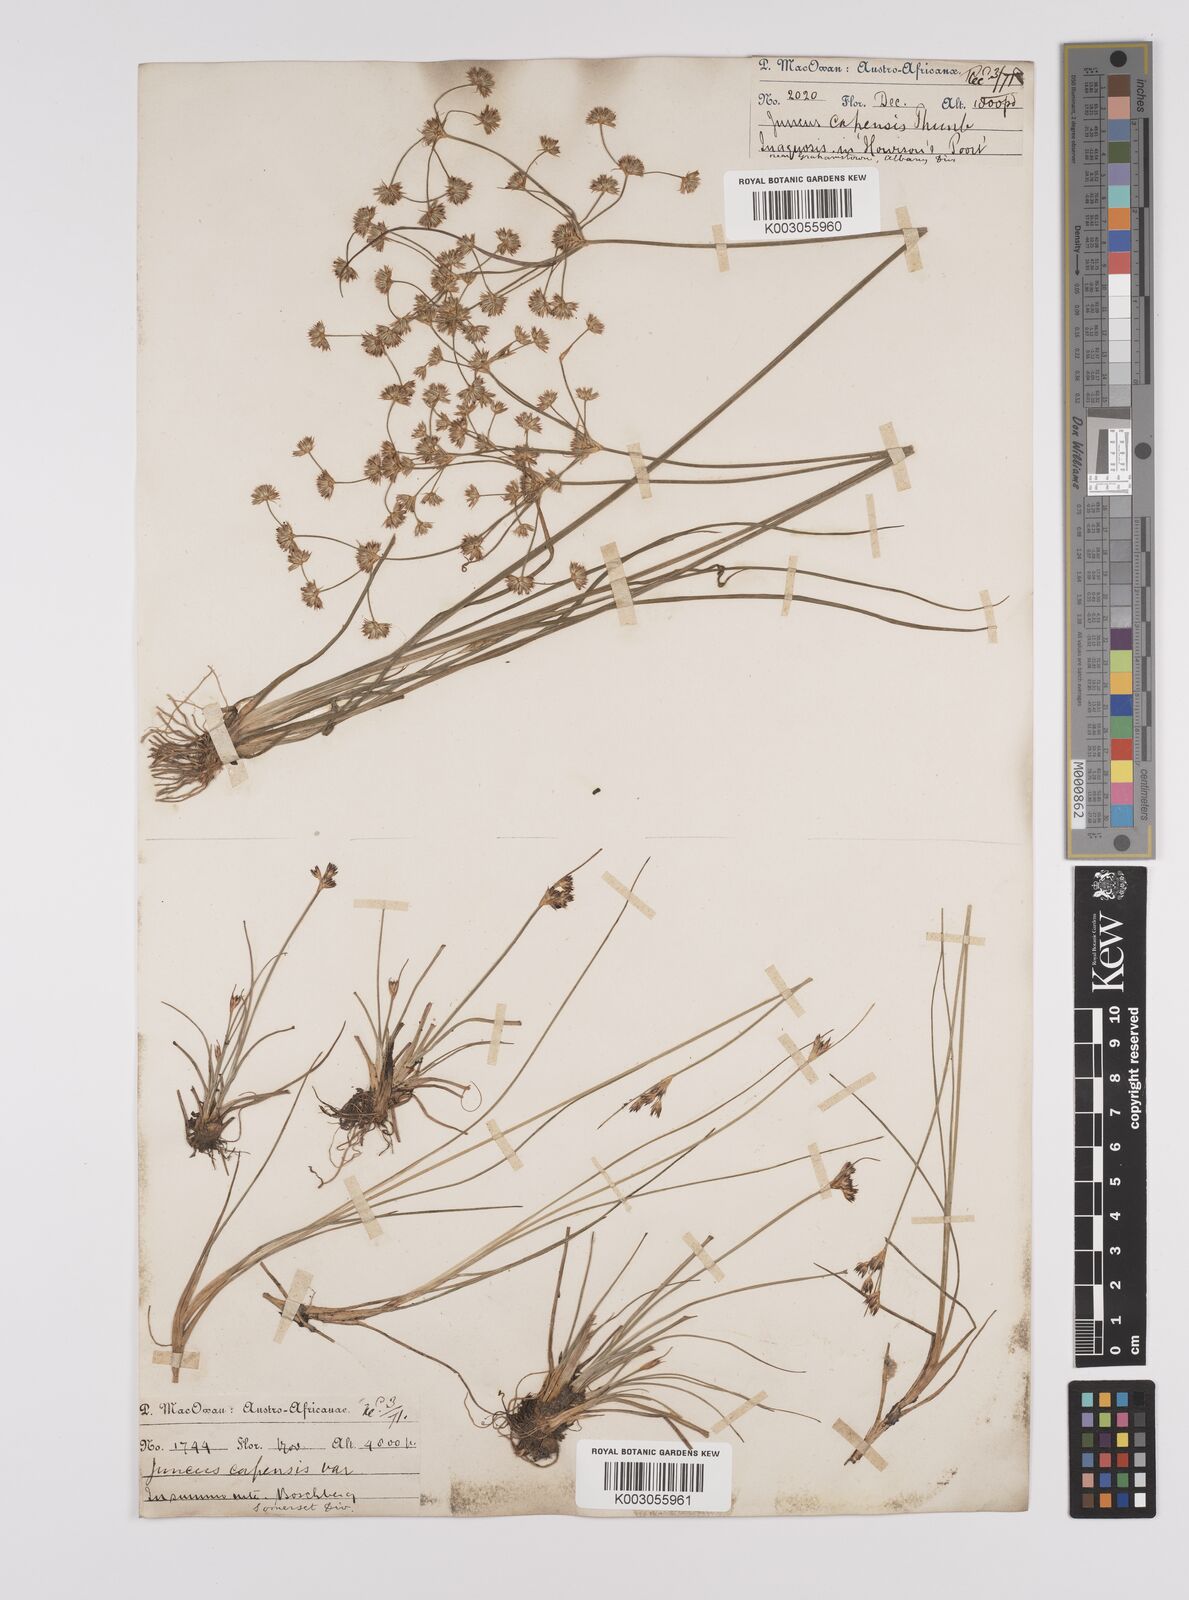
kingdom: Plantae
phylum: Tracheophyta
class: Liliopsida
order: Poales
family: Juncaceae
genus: Juncus
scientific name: Juncus capensis
